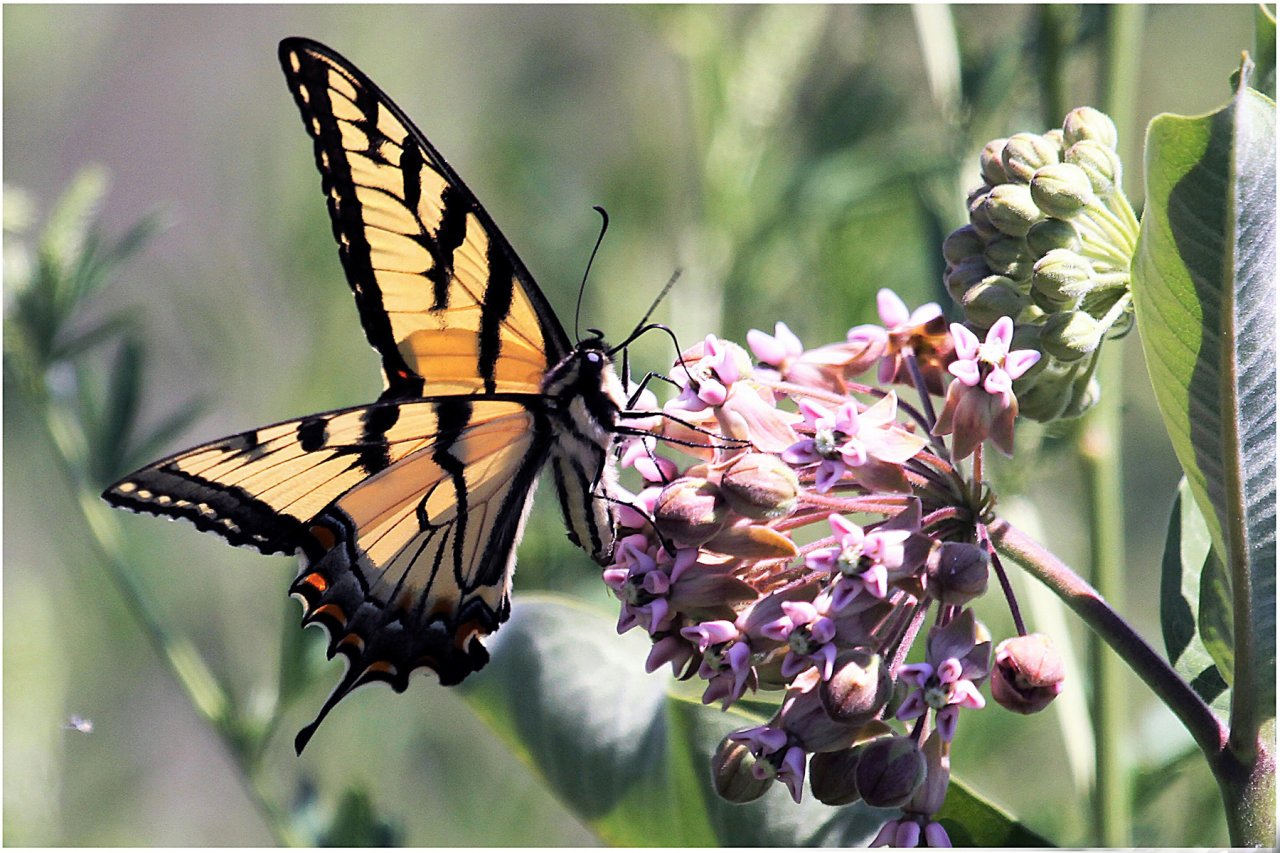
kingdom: Animalia
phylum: Arthropoda
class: Insecta
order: Lepidoptera
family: Papilionidae
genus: Pterourus
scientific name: Pterourus glaucus
